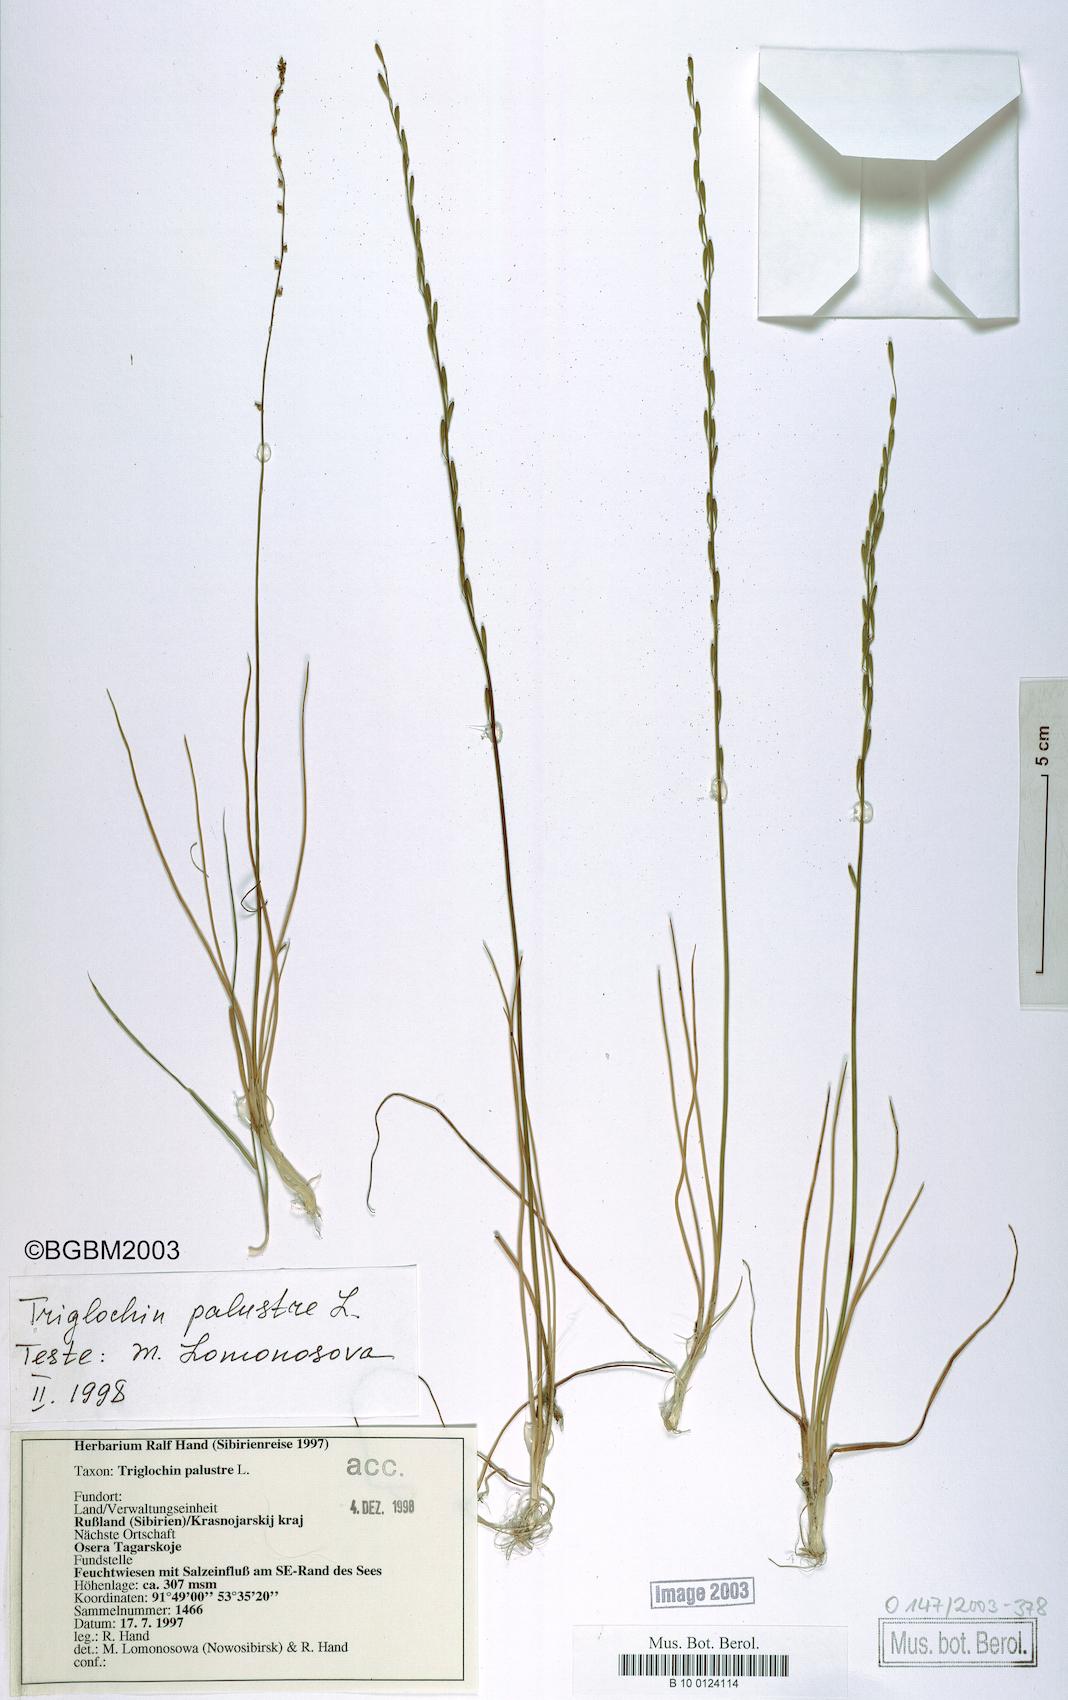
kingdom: Plantae
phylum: Tracheophyta
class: Liliopsida
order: Alismatales
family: Juncaginaceae
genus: Triglochin
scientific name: Triglochin palustris
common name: Marsh arrowgrass
